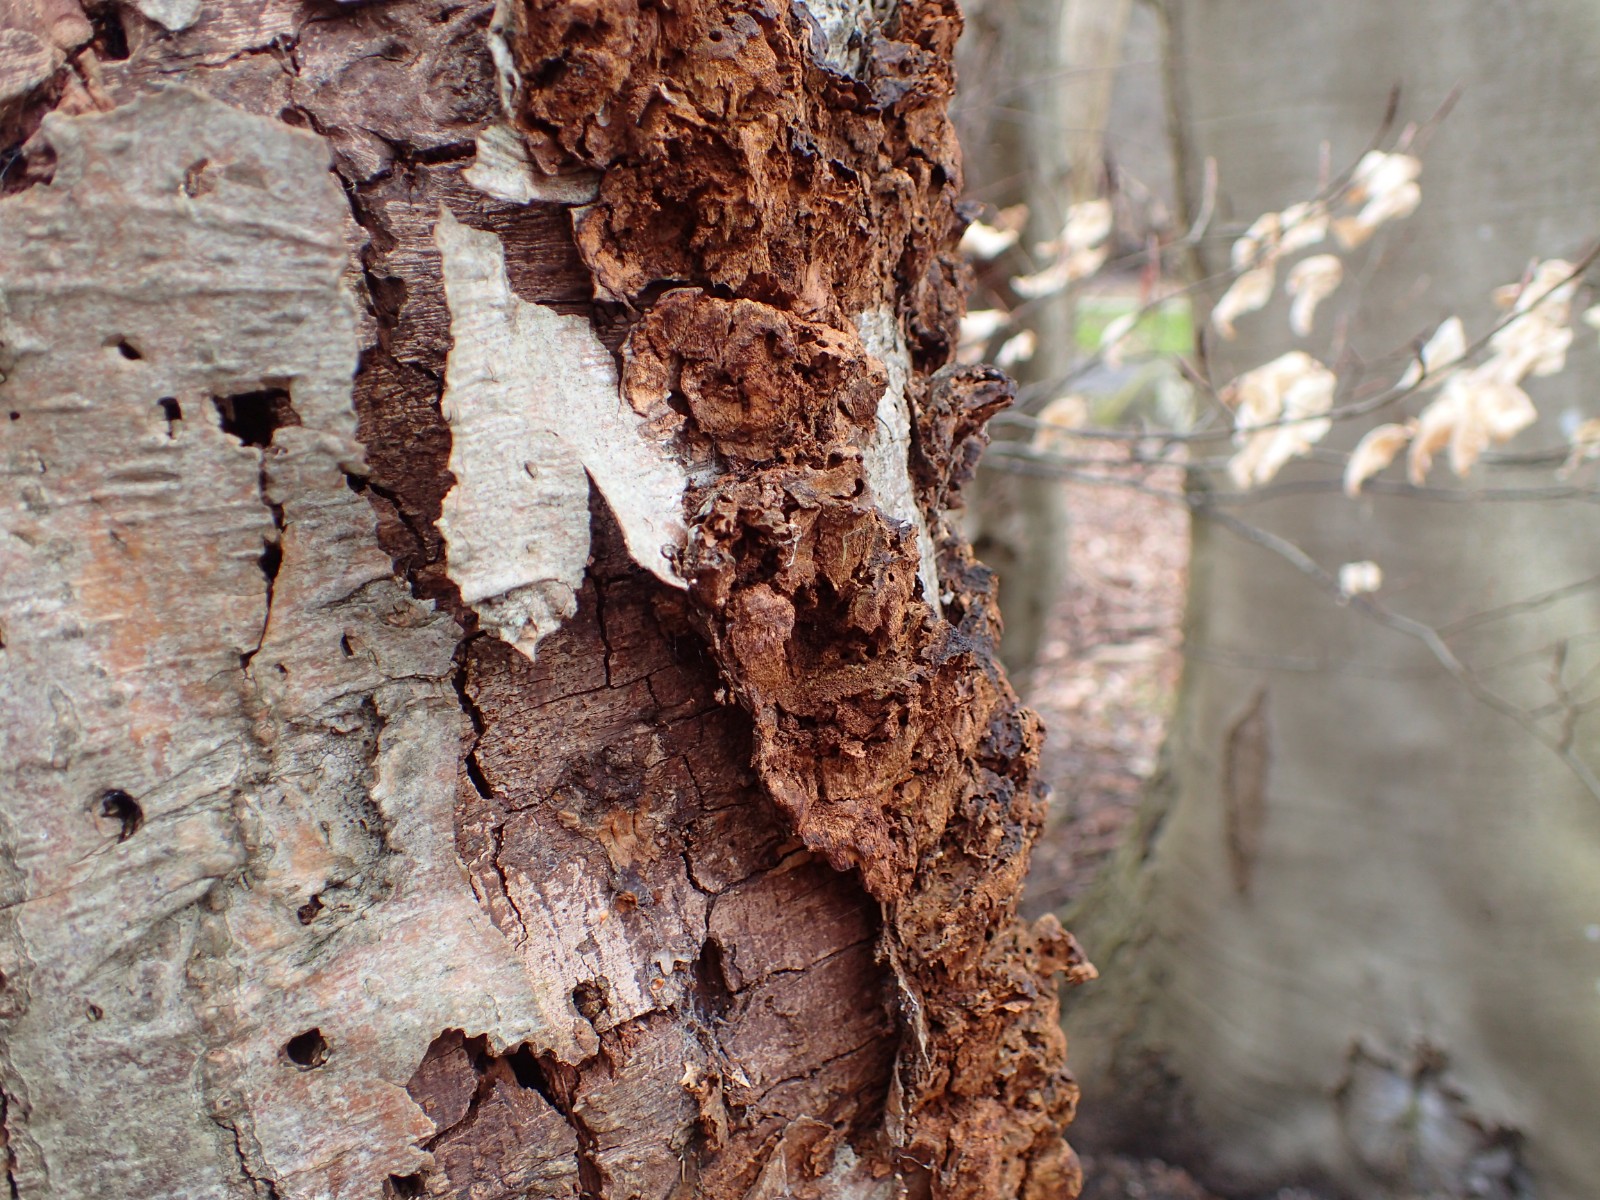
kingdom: Fungi
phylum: Basidiomycota
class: Agaricomycetes
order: Hymenochaetales
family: Hymenochaetaceae
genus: Xanthoporia
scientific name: Xanthoporia radiata
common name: elle-spejlporesvamp
